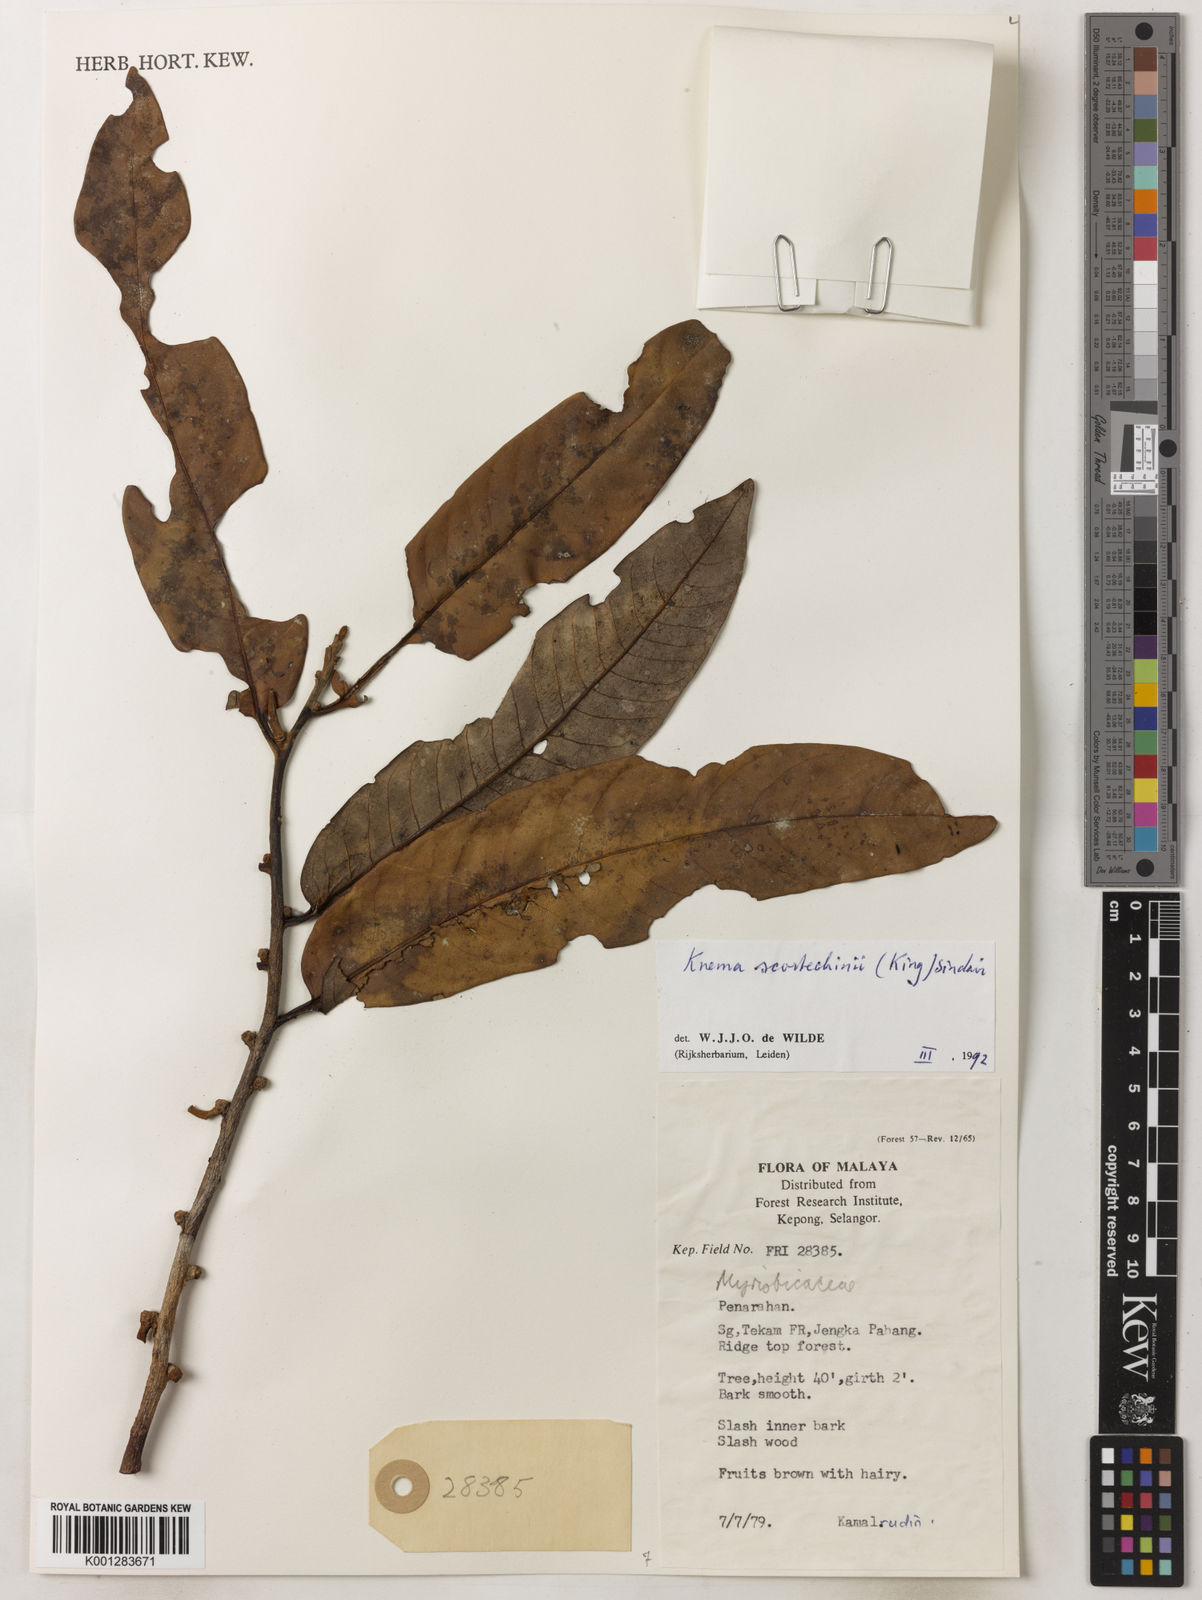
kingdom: Plantae
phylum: Tracheophyta
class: Magnoliopsida
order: Magnoliales
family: Myristicaceae
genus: Knema
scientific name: Knema scortechinii
